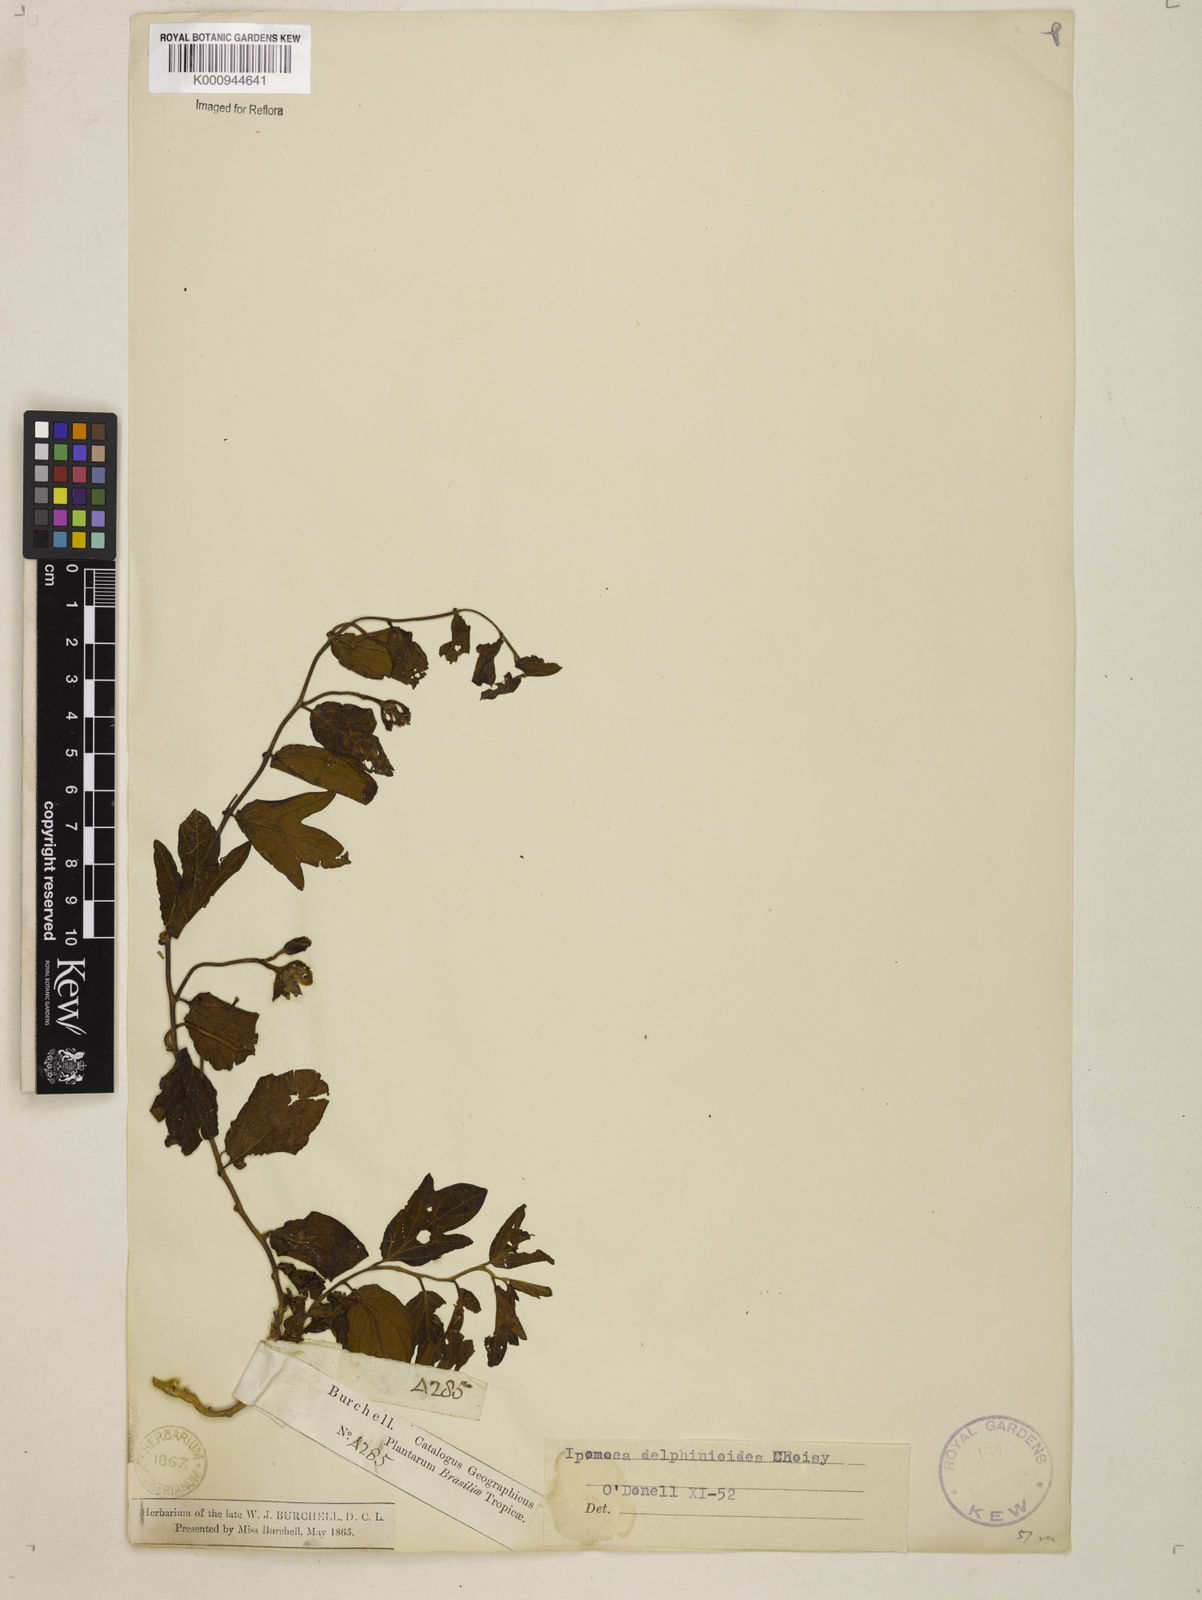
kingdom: Plantae
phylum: Tracheophyta
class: Magnoliopsida
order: Solanales
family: Convolvulaceae
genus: Ipomoea
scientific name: Ipomoea delphinioides
